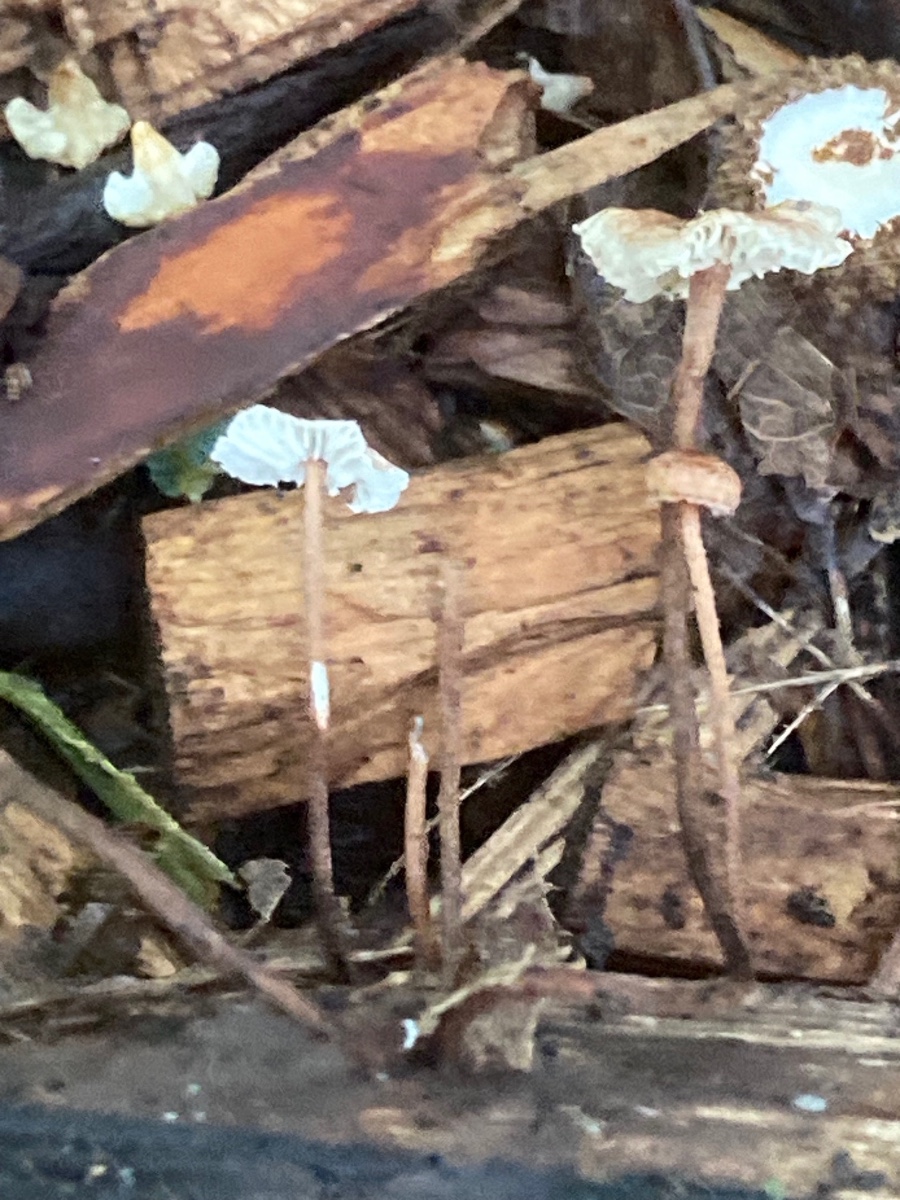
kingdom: Fungi
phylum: Basidiomycota
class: Agaricomycetes
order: Agaricales
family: Marasmiaceae
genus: Crinipellis
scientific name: Crinipellis scabella
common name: børstefod
